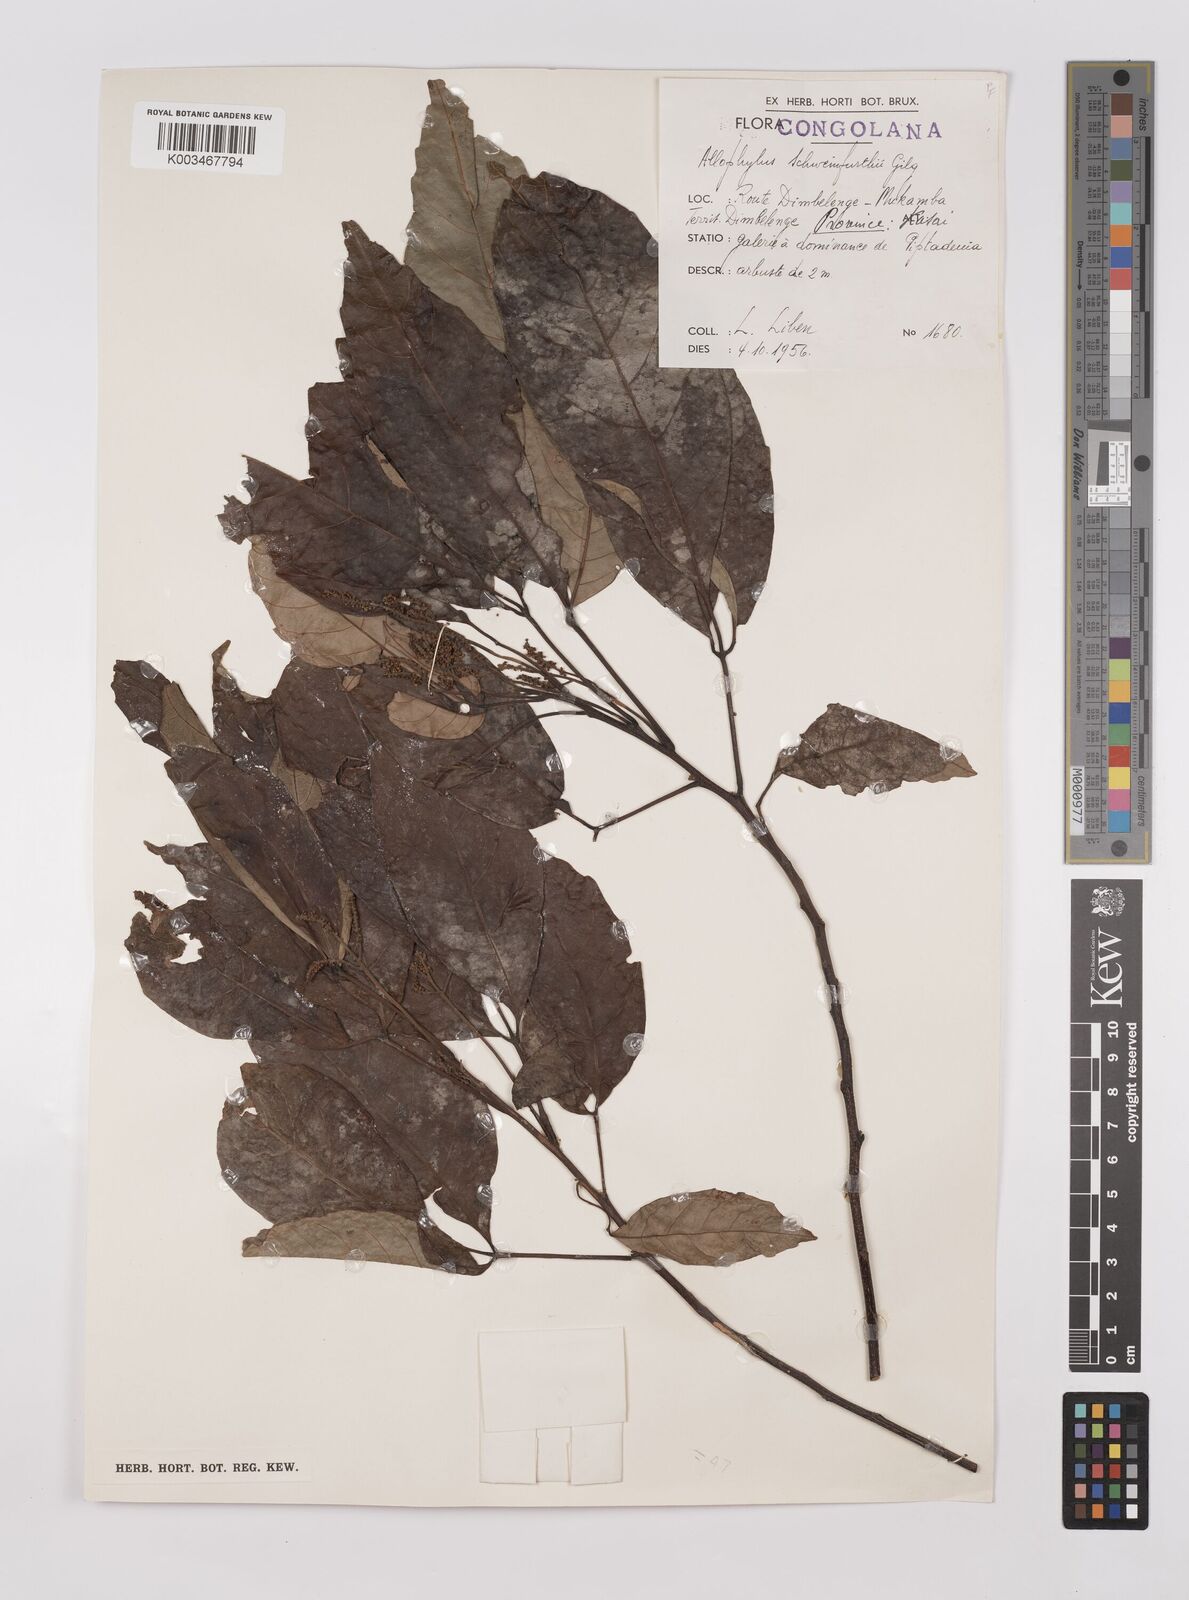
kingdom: Plantae
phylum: Tracheophyta
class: Magnoliopsida
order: Sapindales
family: Sapindaceae
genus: Allophylus
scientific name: Allophylus africanus
